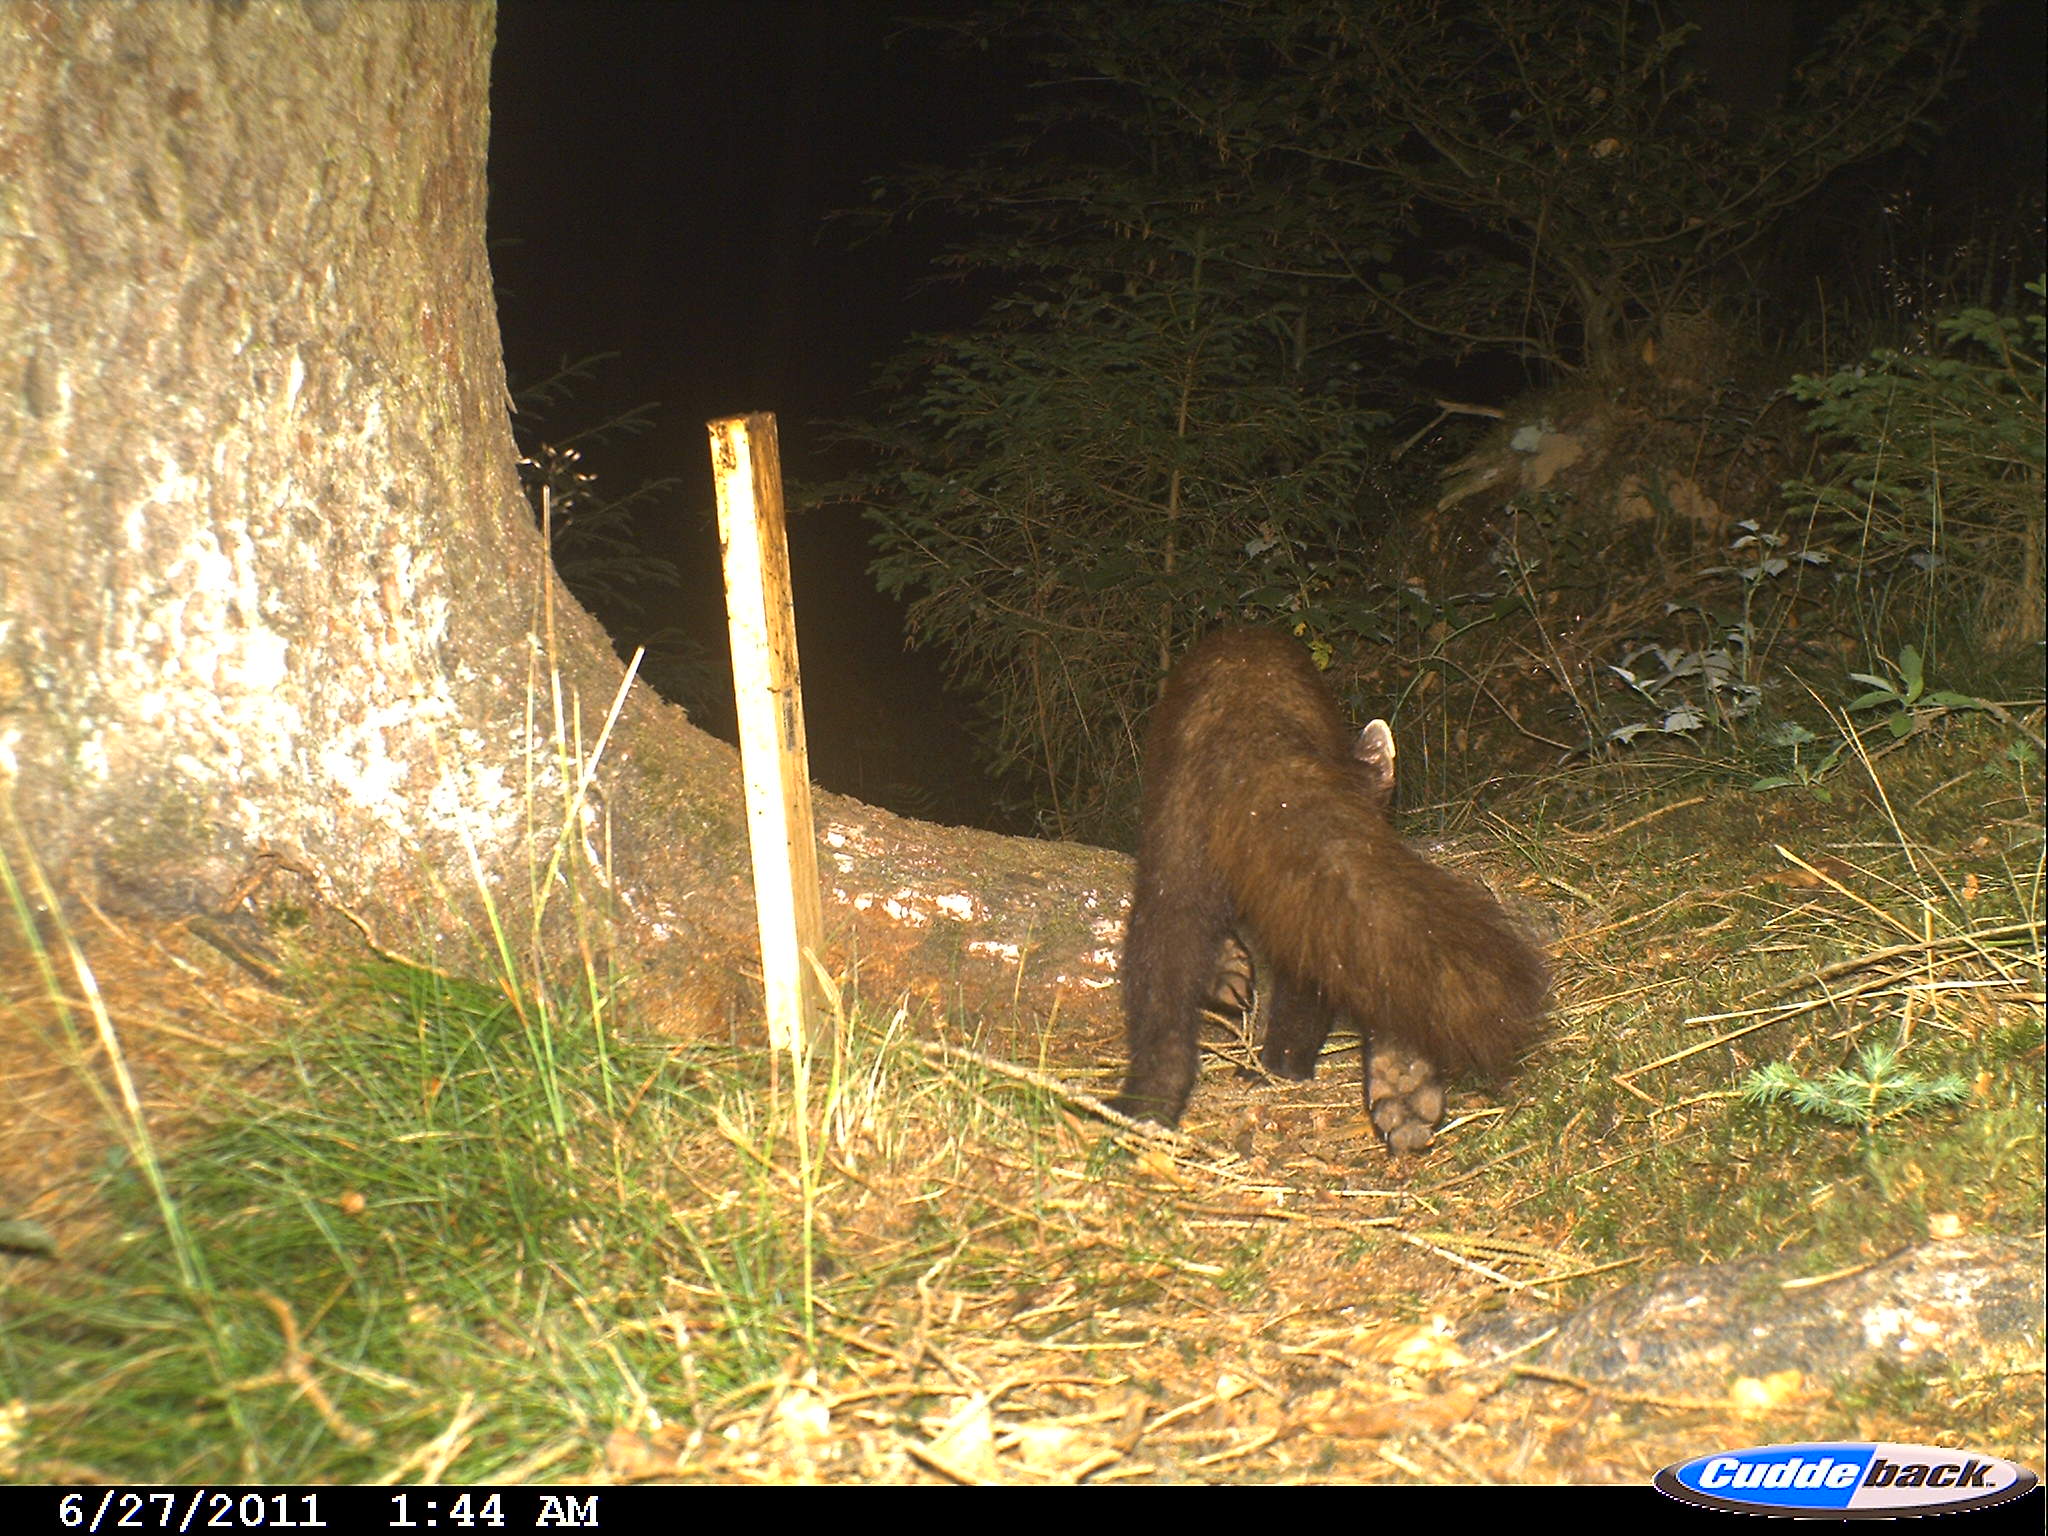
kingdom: Animalia
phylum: Chordata
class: Mammalia
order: Carnivora
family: Mustelidae
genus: Martes
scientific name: Martes martes
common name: European pine marten
